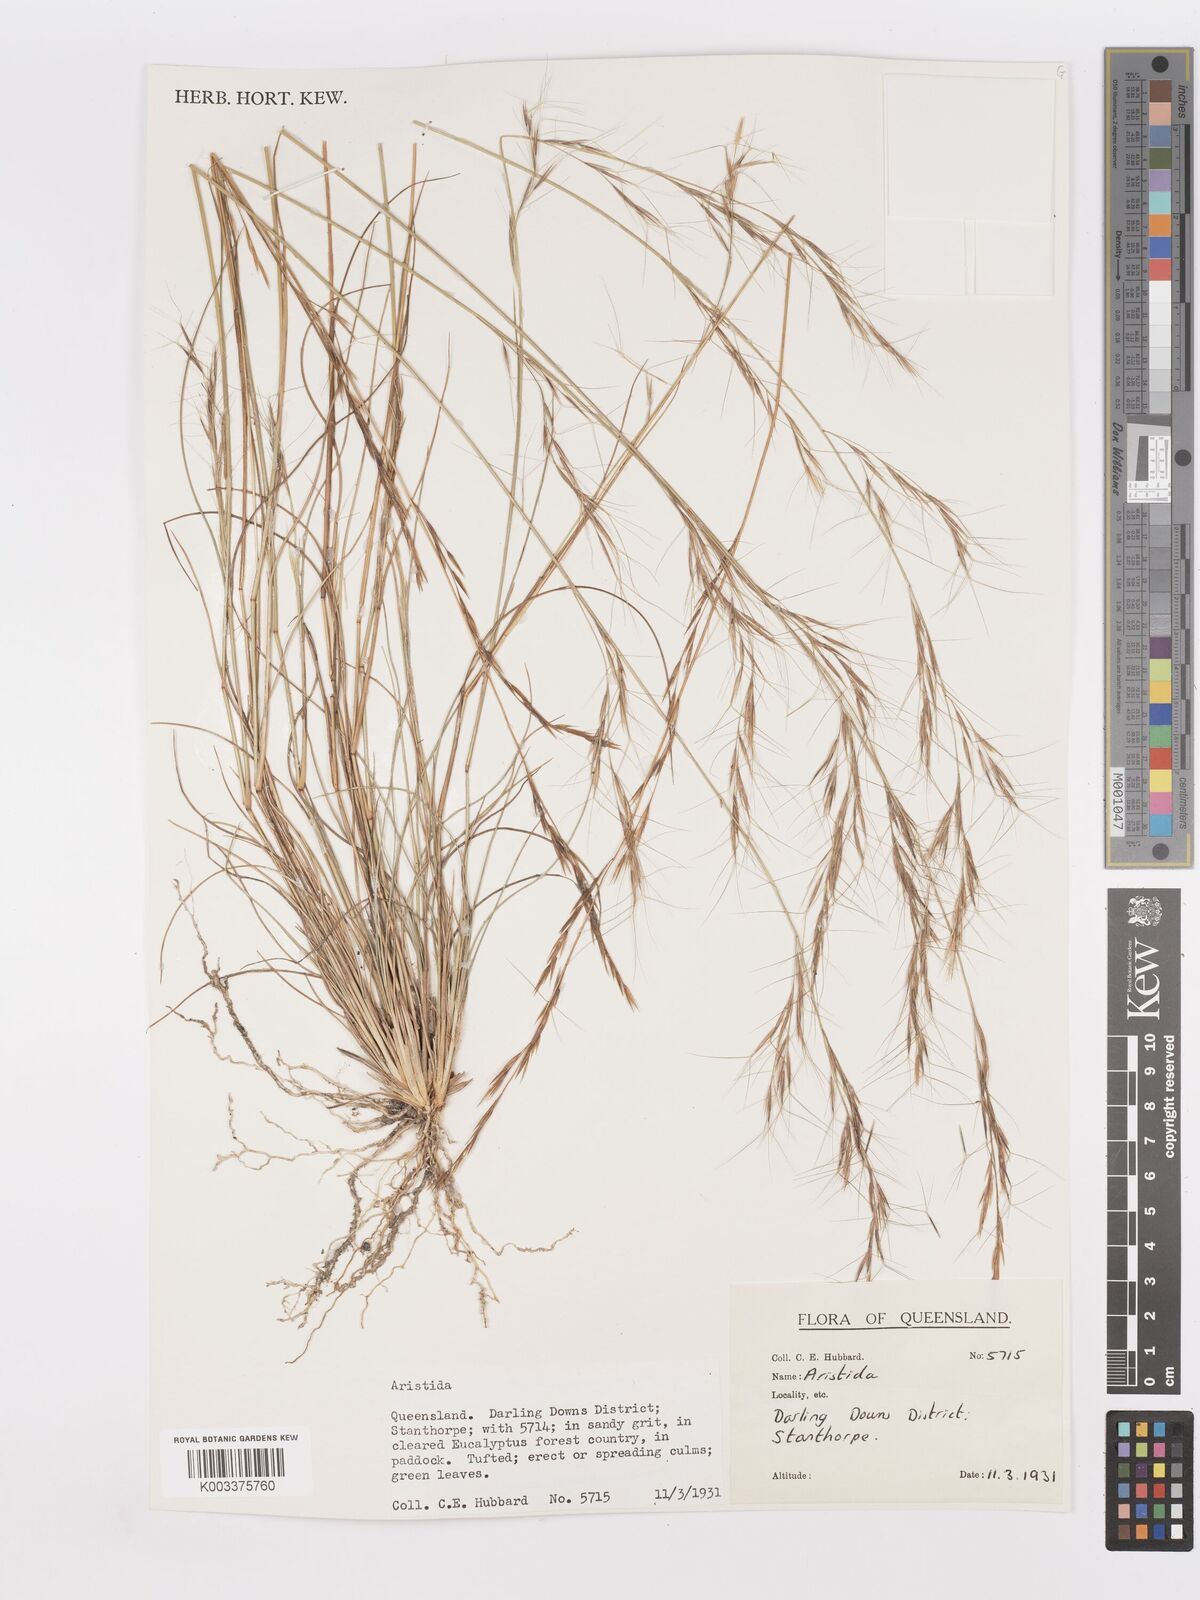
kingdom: Plantae
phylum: Tracheophyta
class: Liliopsida
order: Poales
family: Poaceae
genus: Aristida
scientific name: Aristida
